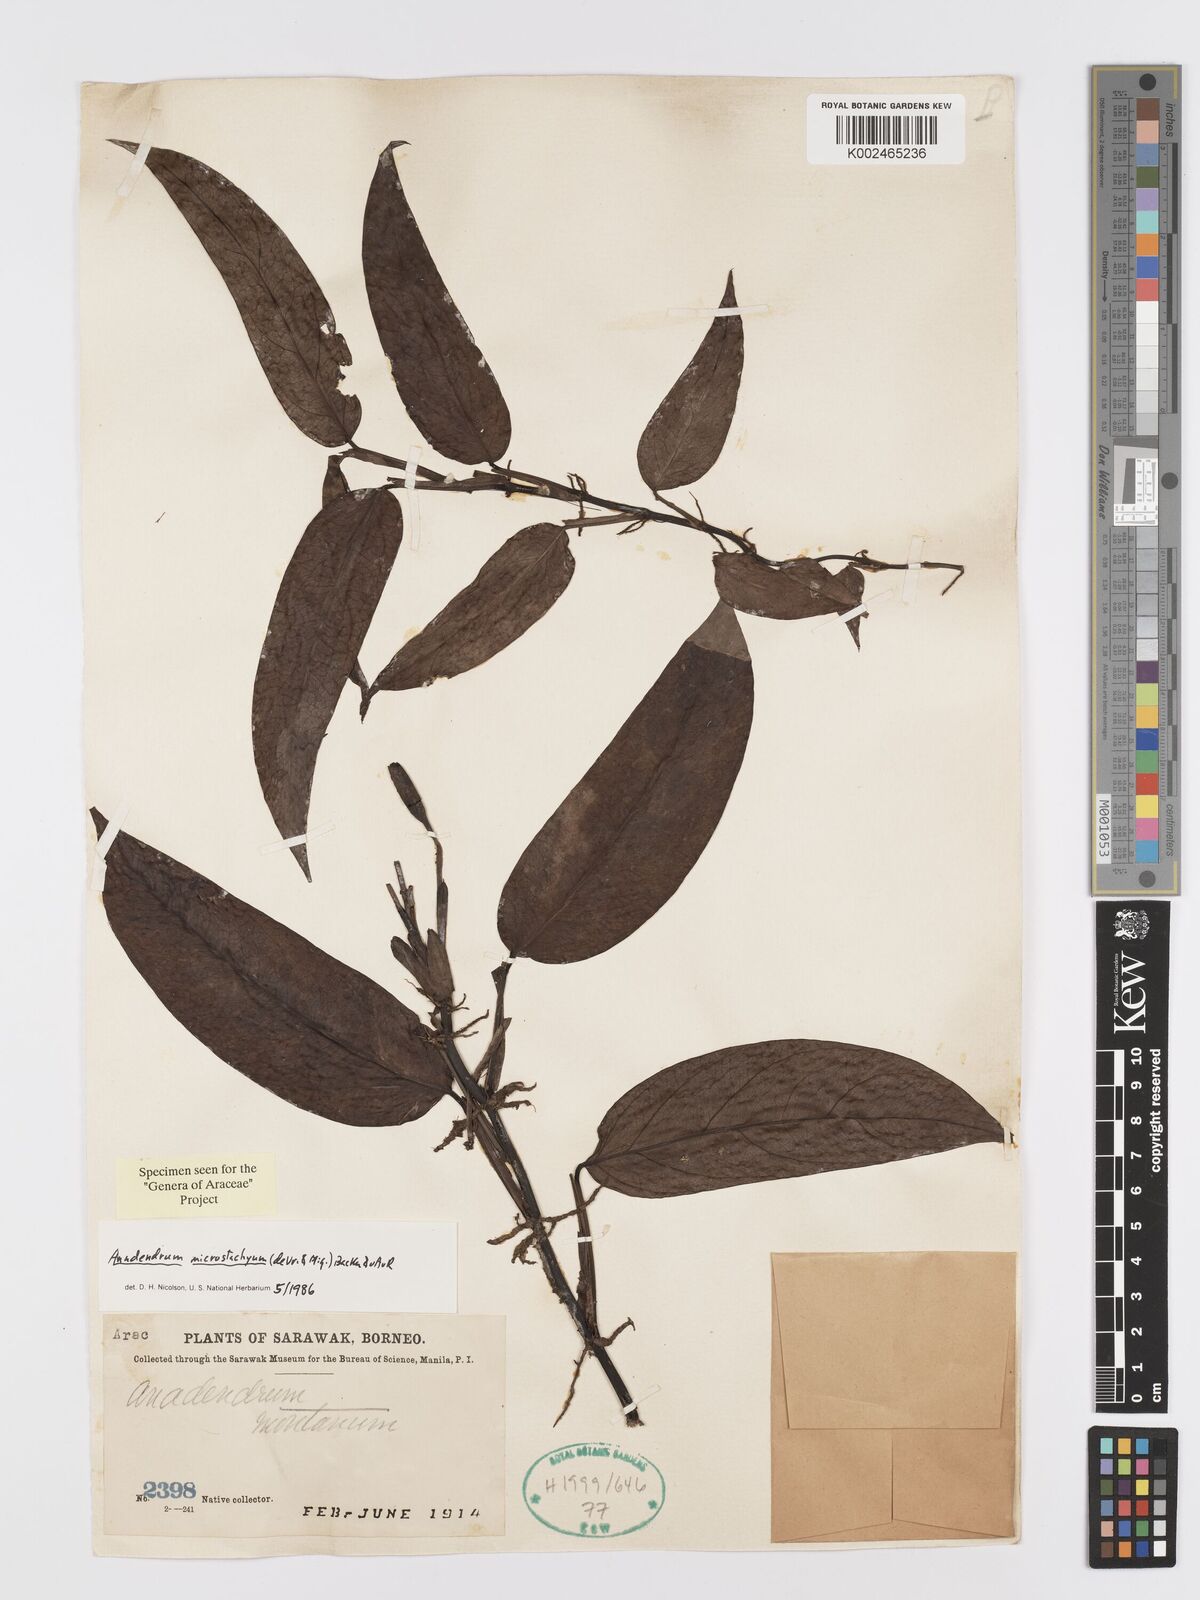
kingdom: Plantae
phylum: Tracheophyta
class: Liliopsida
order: Alismatales
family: Araceae
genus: Anadendrum
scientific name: Anadendrum microstachyum
